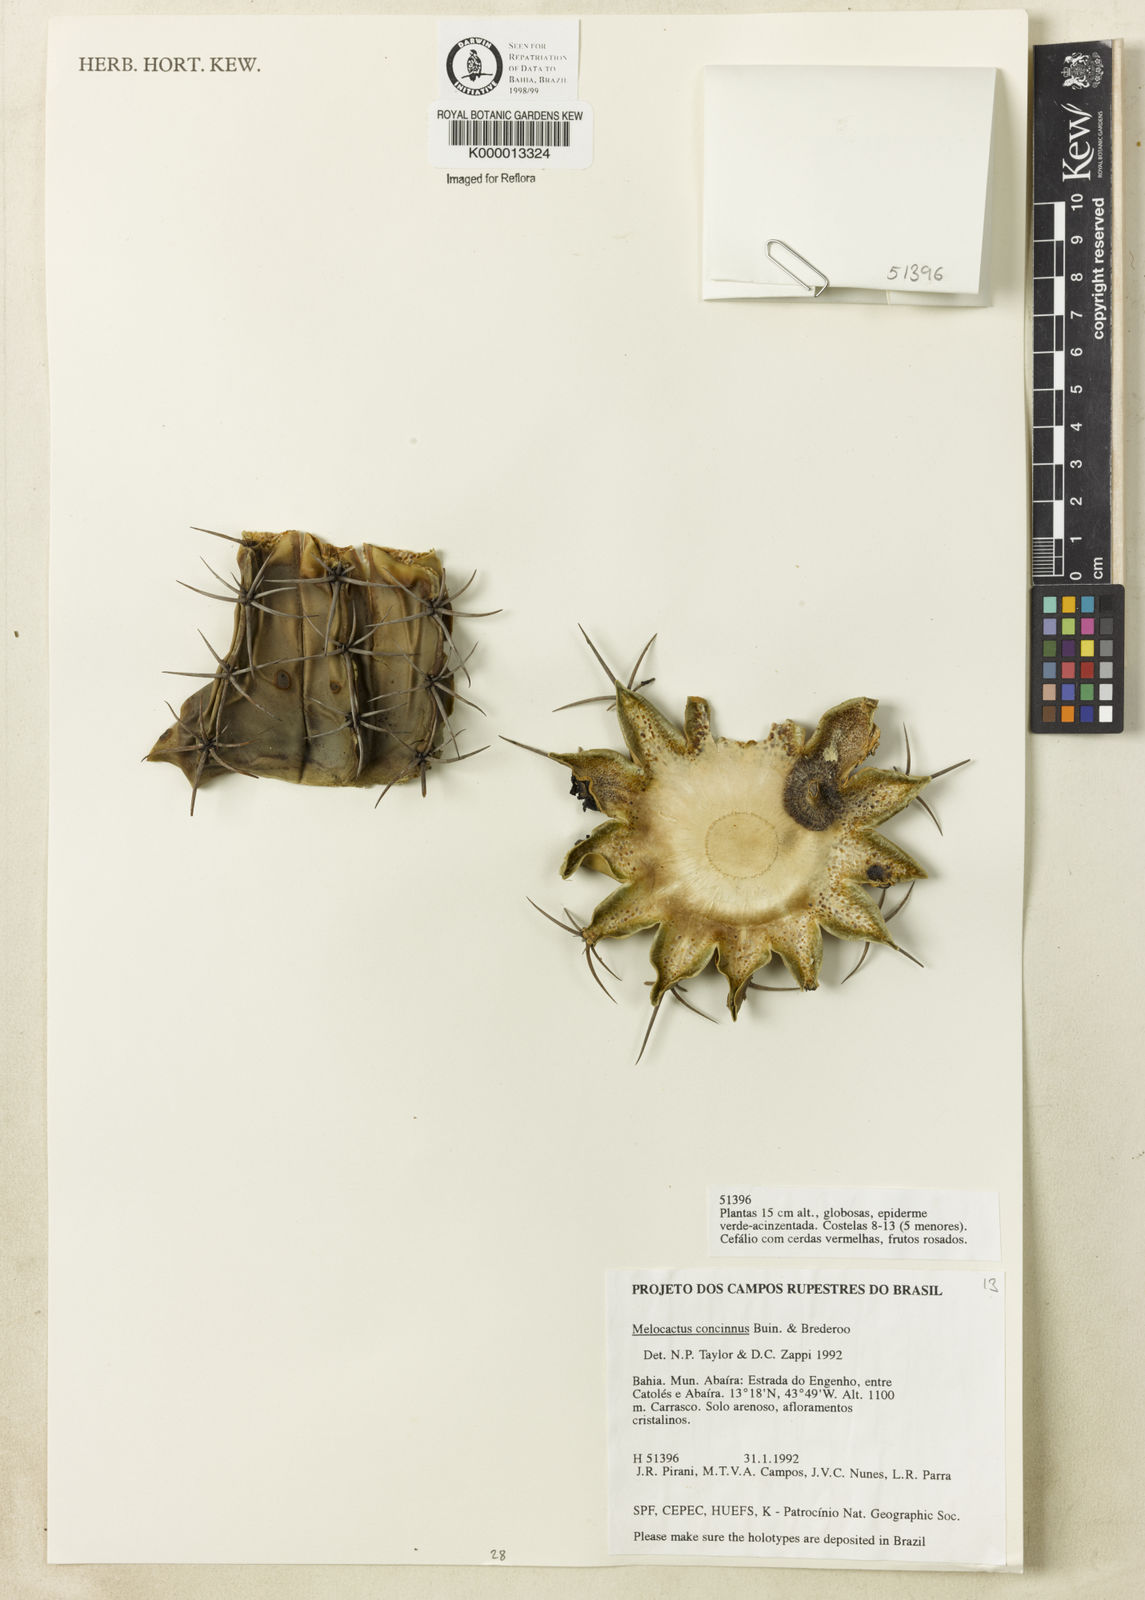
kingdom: Plantae
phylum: Tracheophyta
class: Magnoliopsida
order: Caryophyllales
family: Cactaceae
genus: Melocactus
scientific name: Melocactus pruinosus
